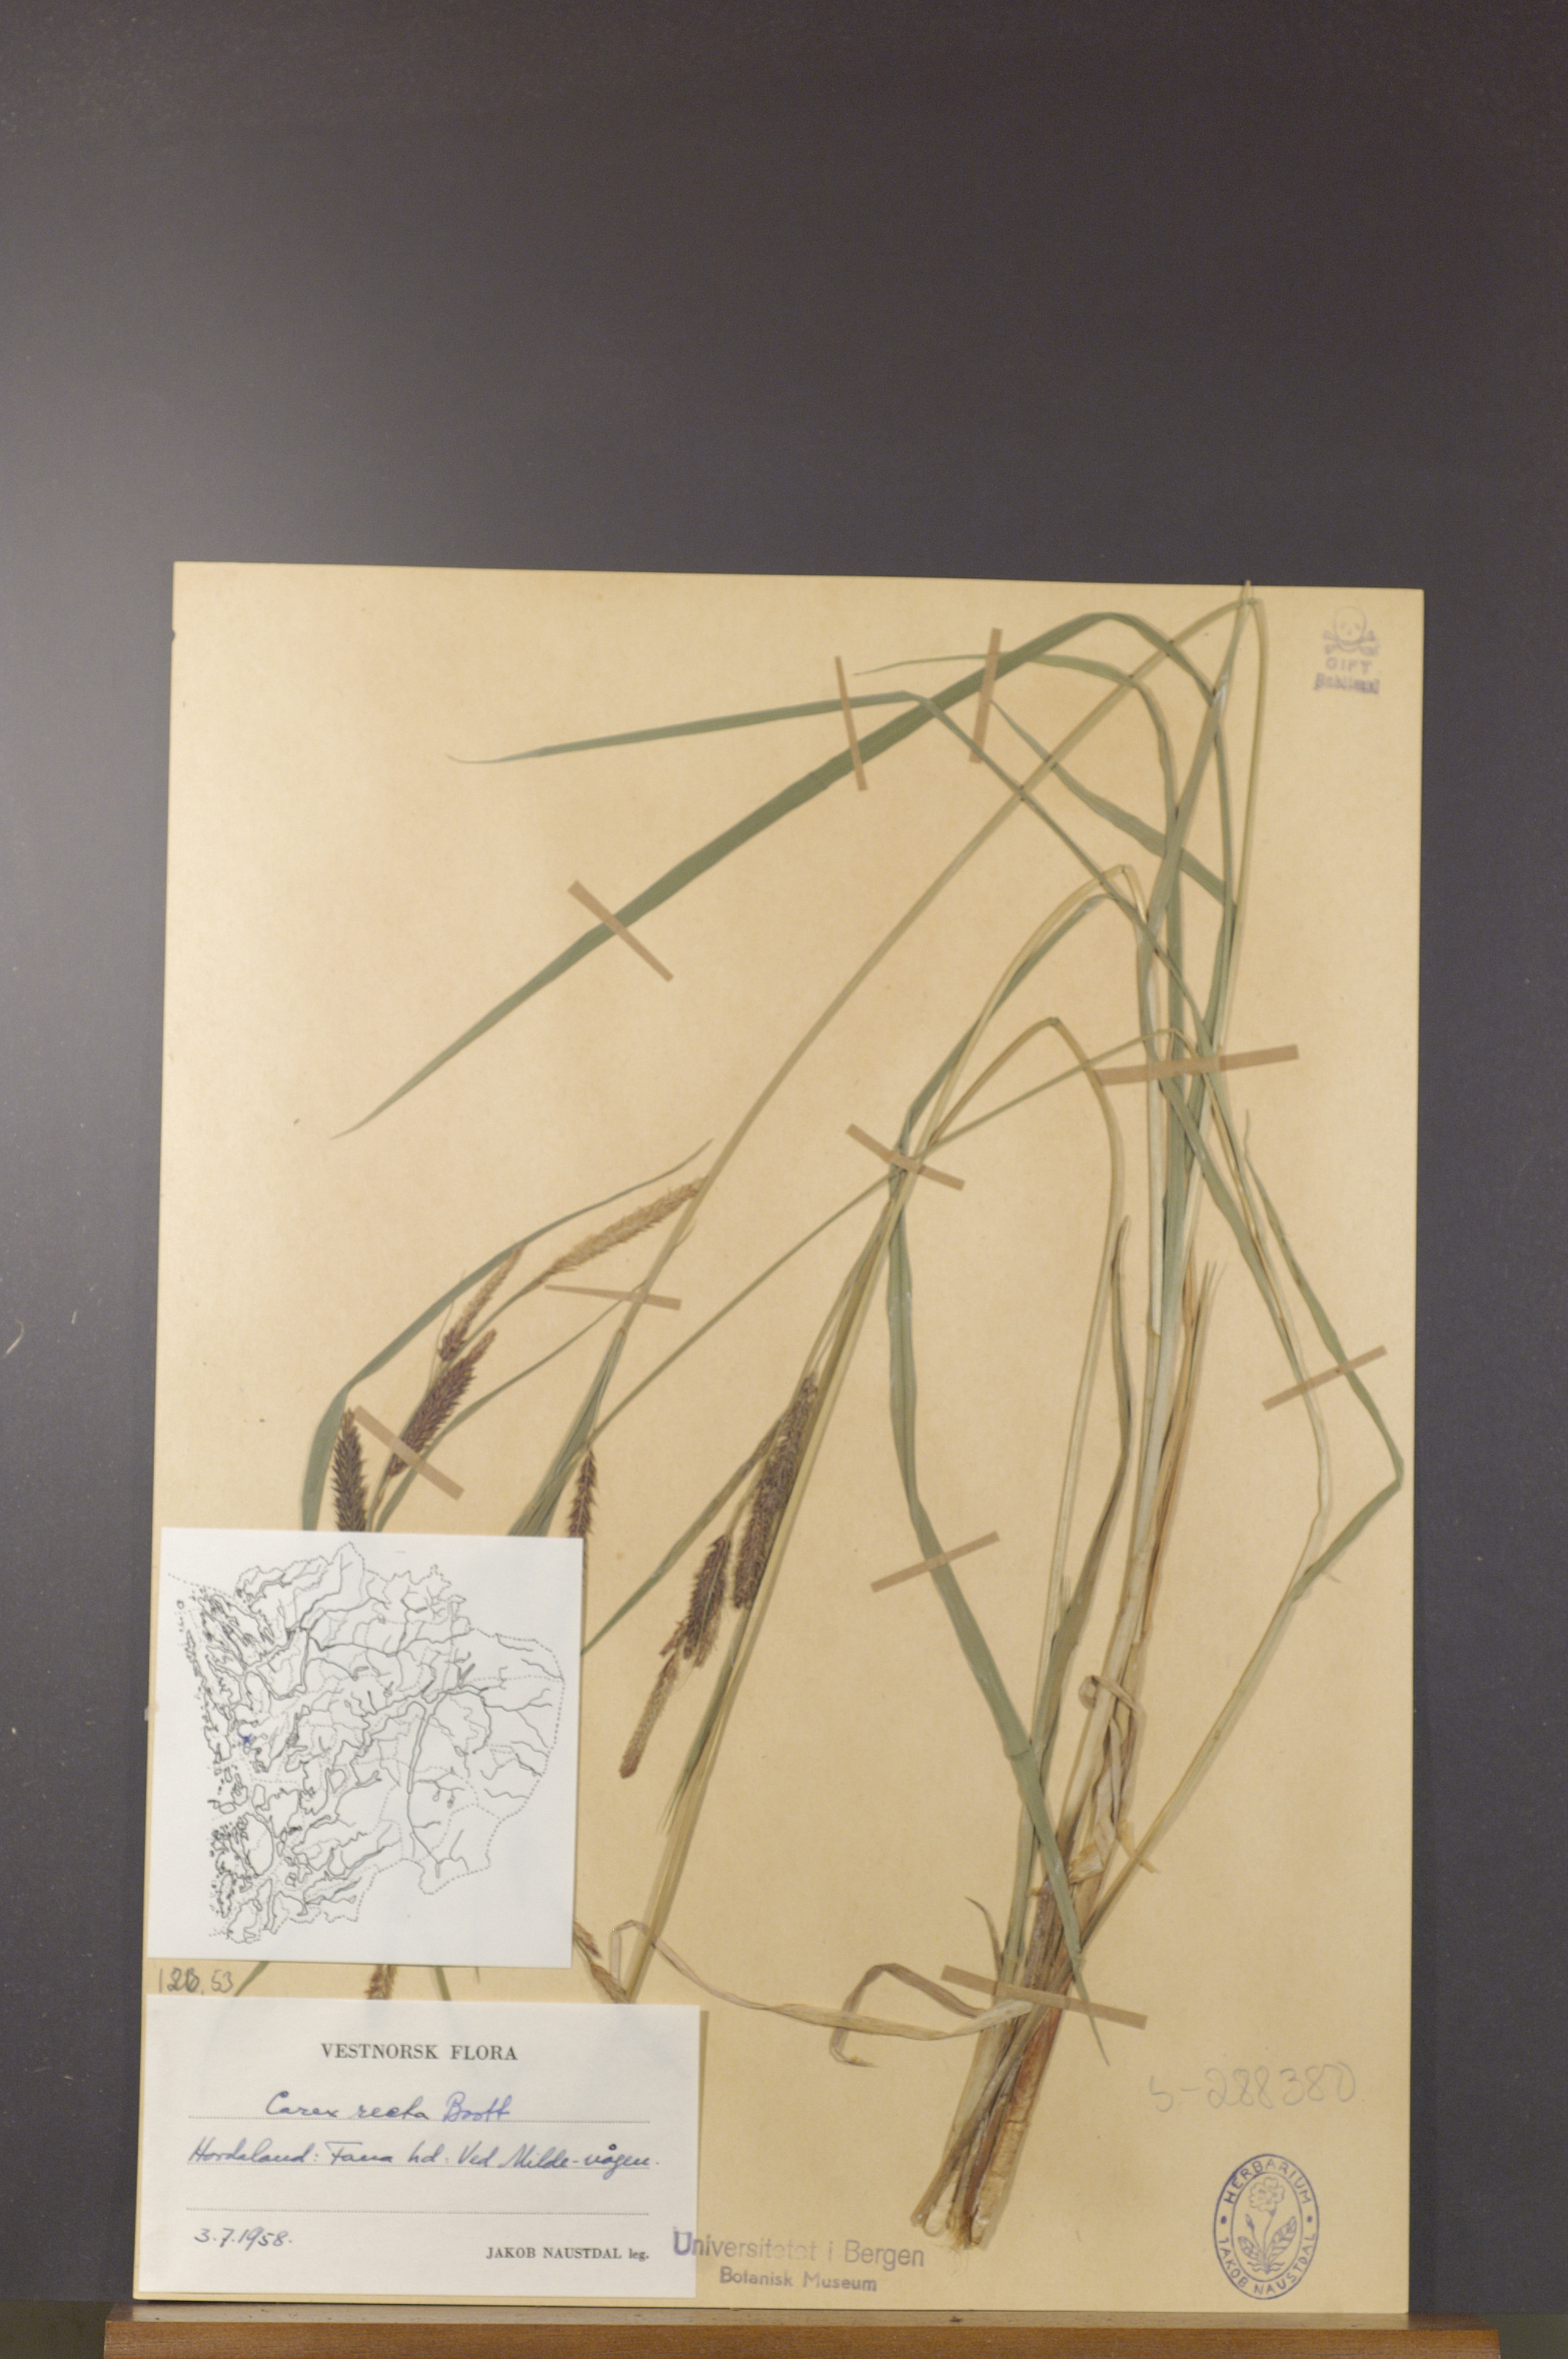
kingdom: Plantae
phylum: Tracheophyta
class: Liliopsida
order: Poales
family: Cyperaceae
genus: Carex
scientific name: Carex recta
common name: Estuarine sedge
